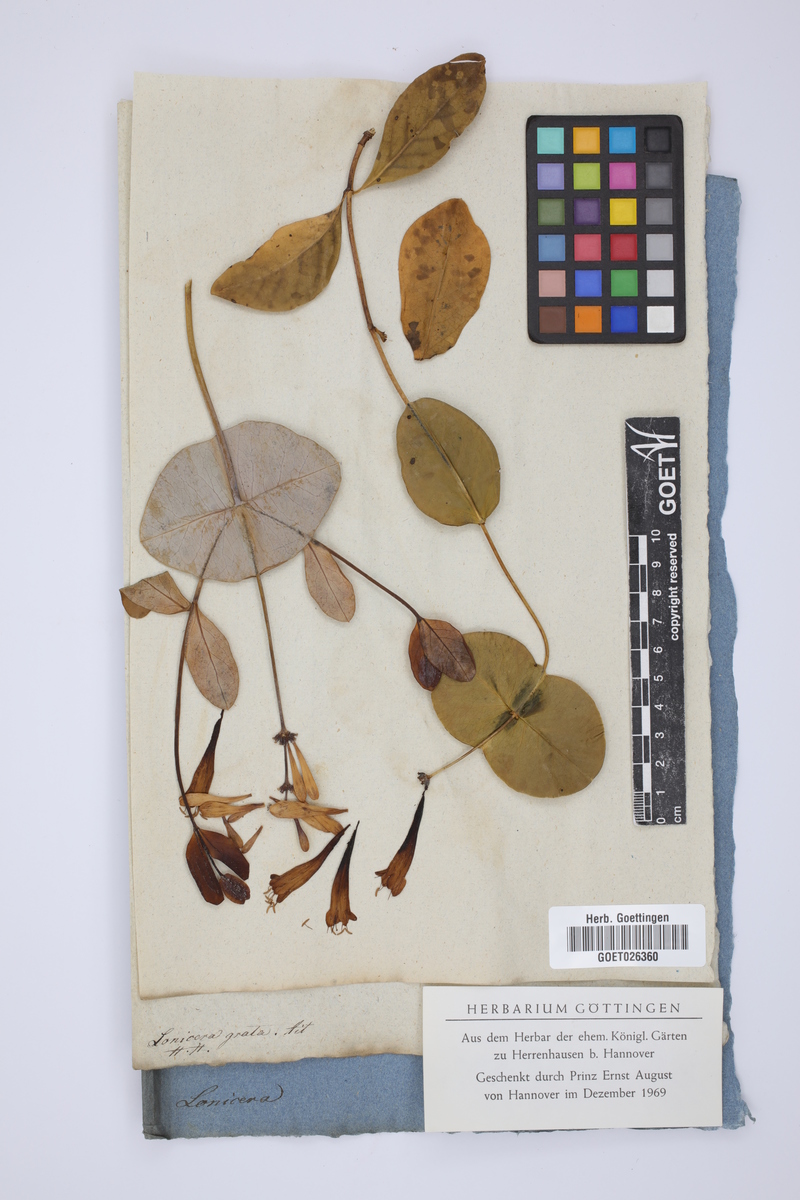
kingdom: Plantae
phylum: Tracheophyta
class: Magnoliopsida
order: Dipsacales
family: Caprifoliaceae
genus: Lonicera
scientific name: Lonicera americana
